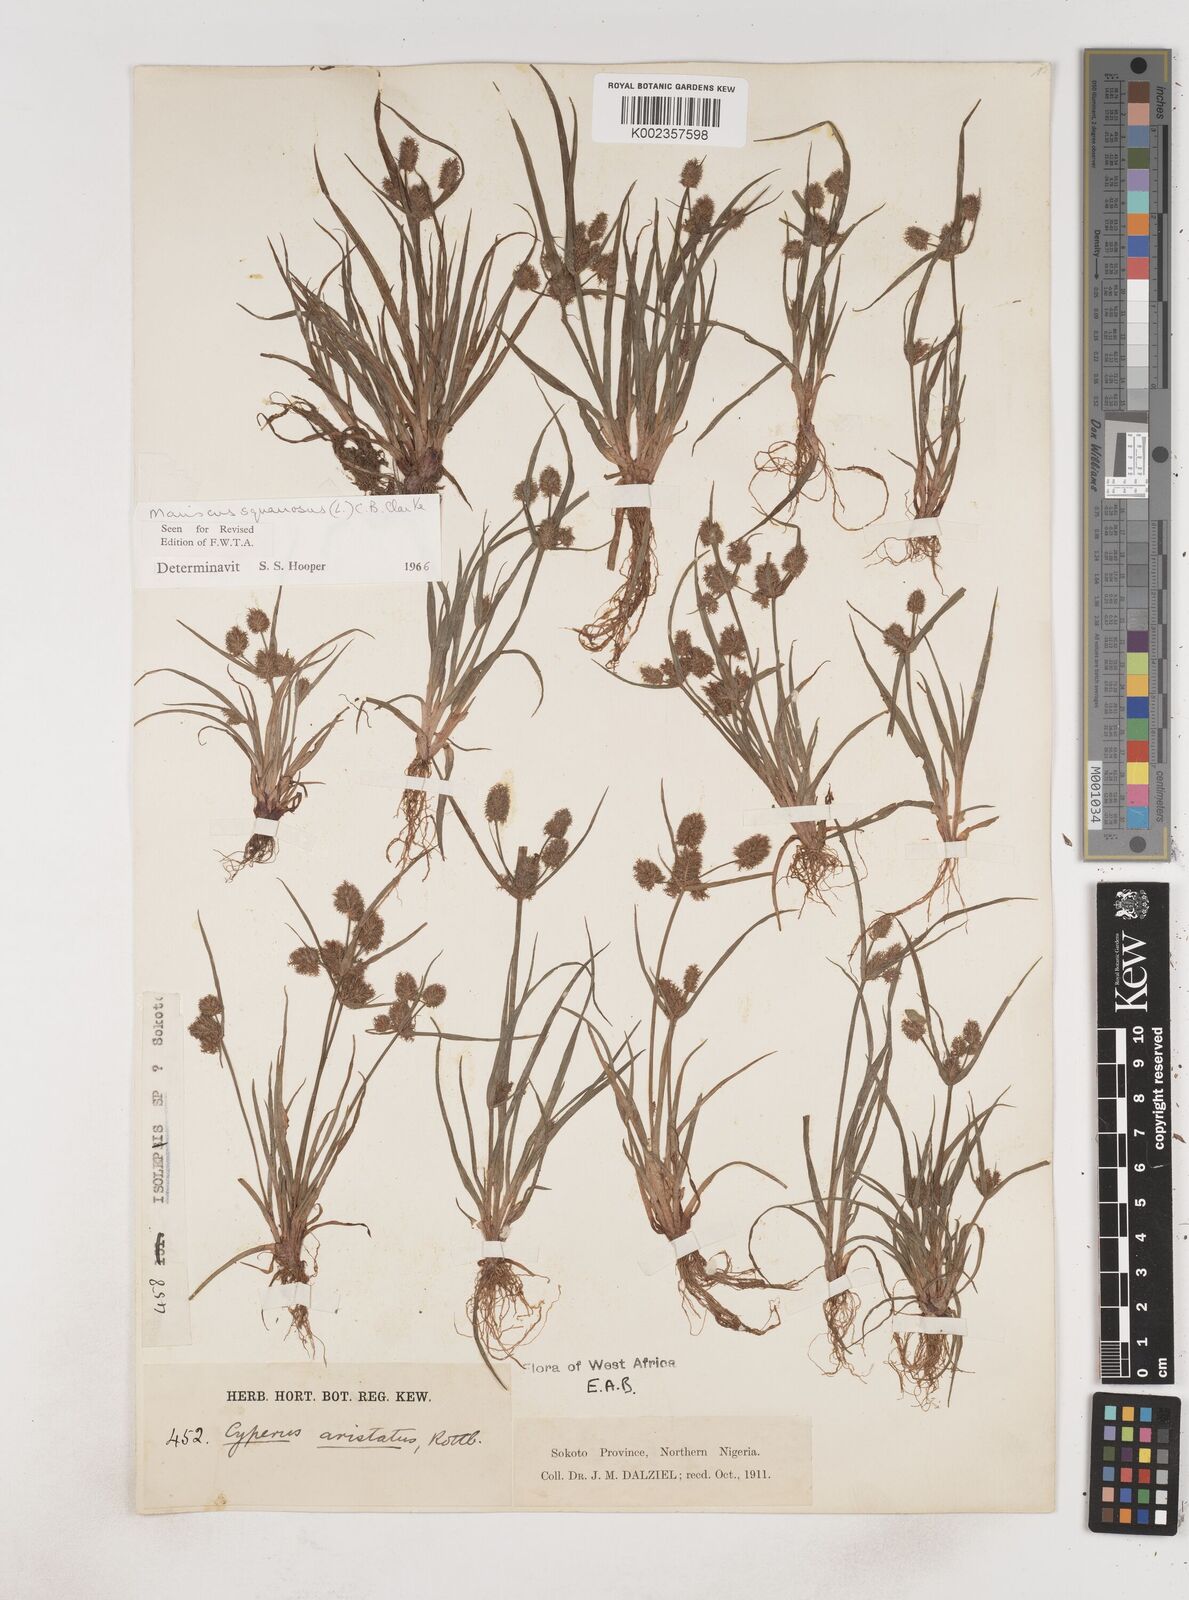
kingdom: Plantae
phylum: Tracheophyta
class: Liliopsida
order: Poales
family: Cyperaceae
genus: Cyperus
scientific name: Cyperus squarrosus
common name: Awned cyperus
